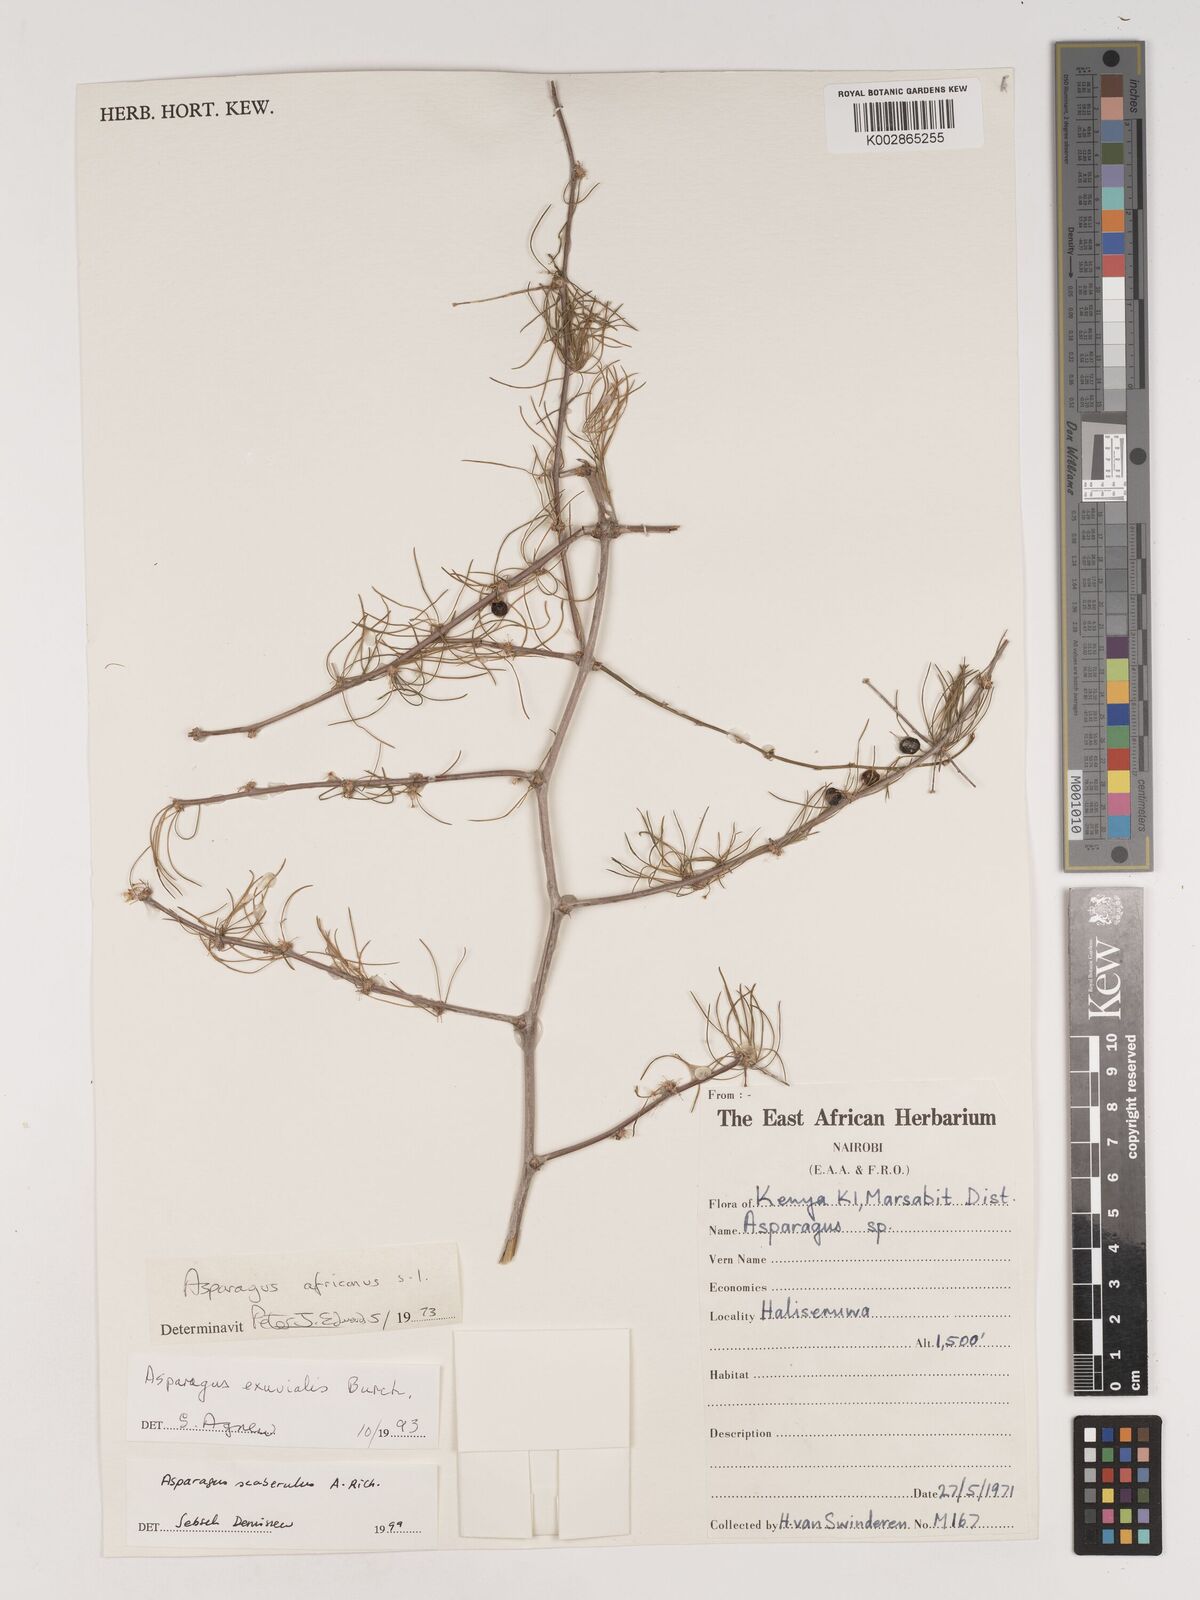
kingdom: Plantae
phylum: Tracheophyta
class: Liliopsida
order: Asparagales
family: Asparagaceae
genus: Asparagus
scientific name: Asparagus scaberulus
